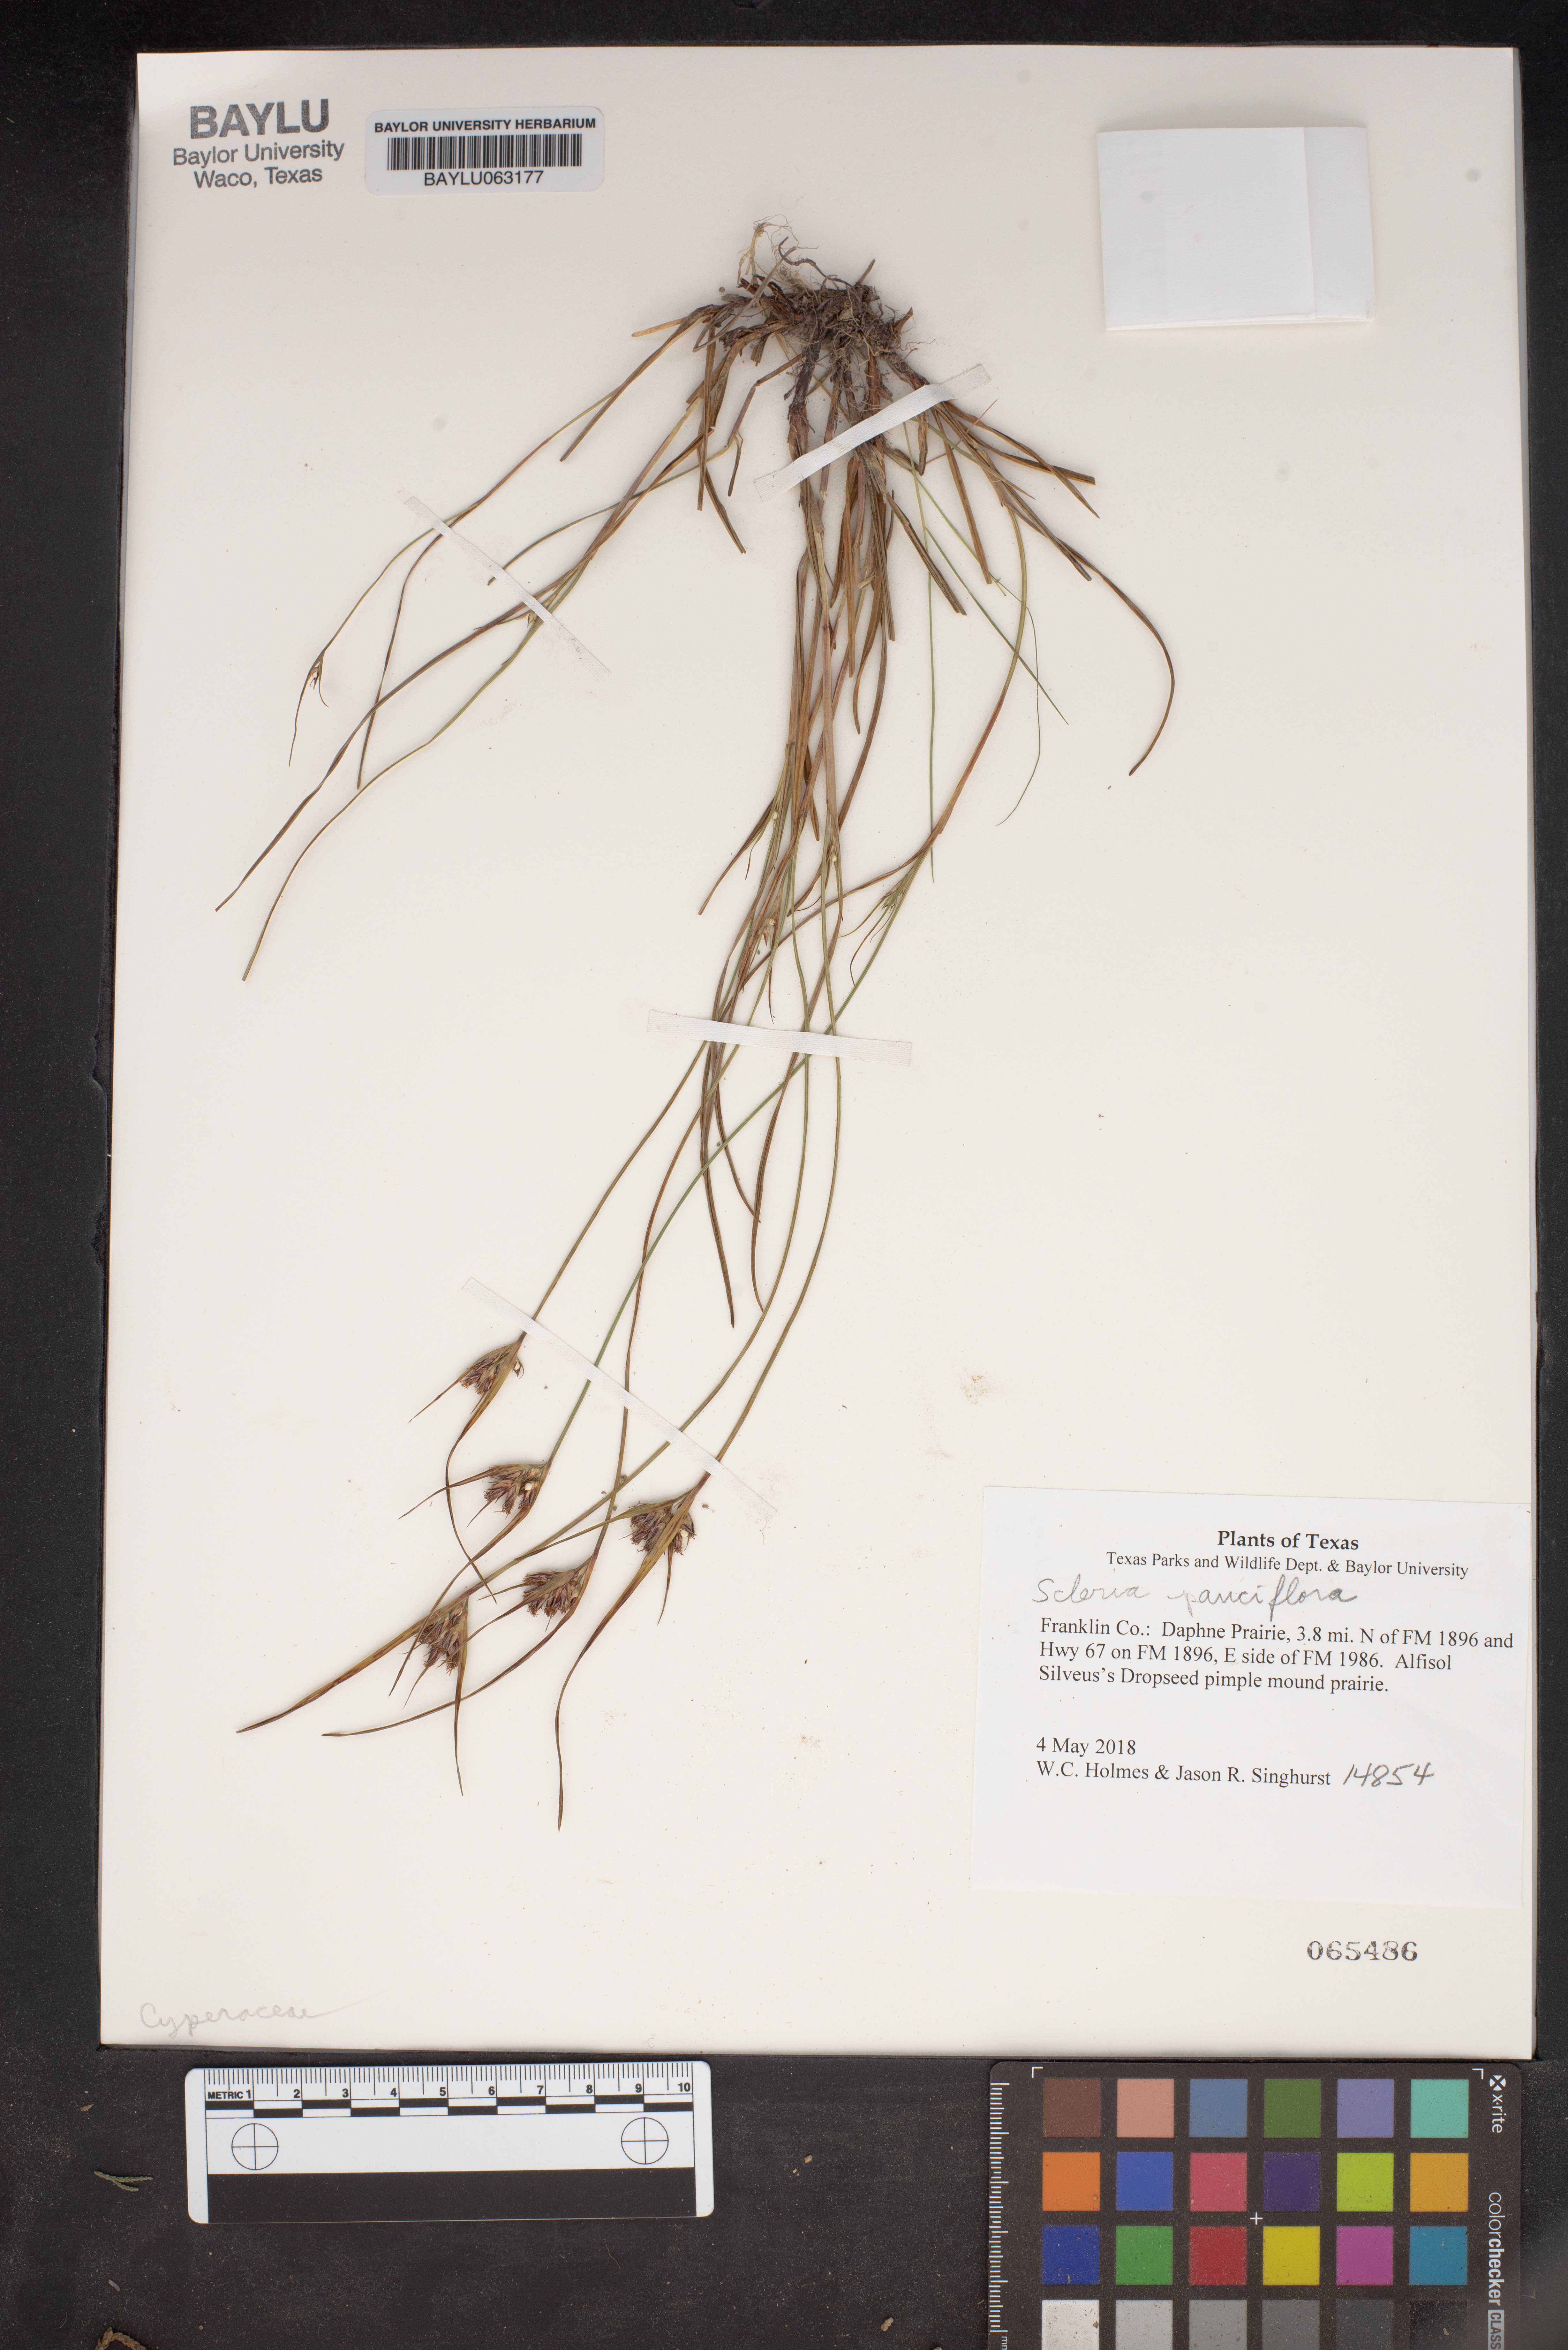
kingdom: Plantae
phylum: Tracheophyta
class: Liliopsida
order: Poales
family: Cyperaceae
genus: Scleria
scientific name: Scleria pauciflora
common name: Few-flowered nutrush
